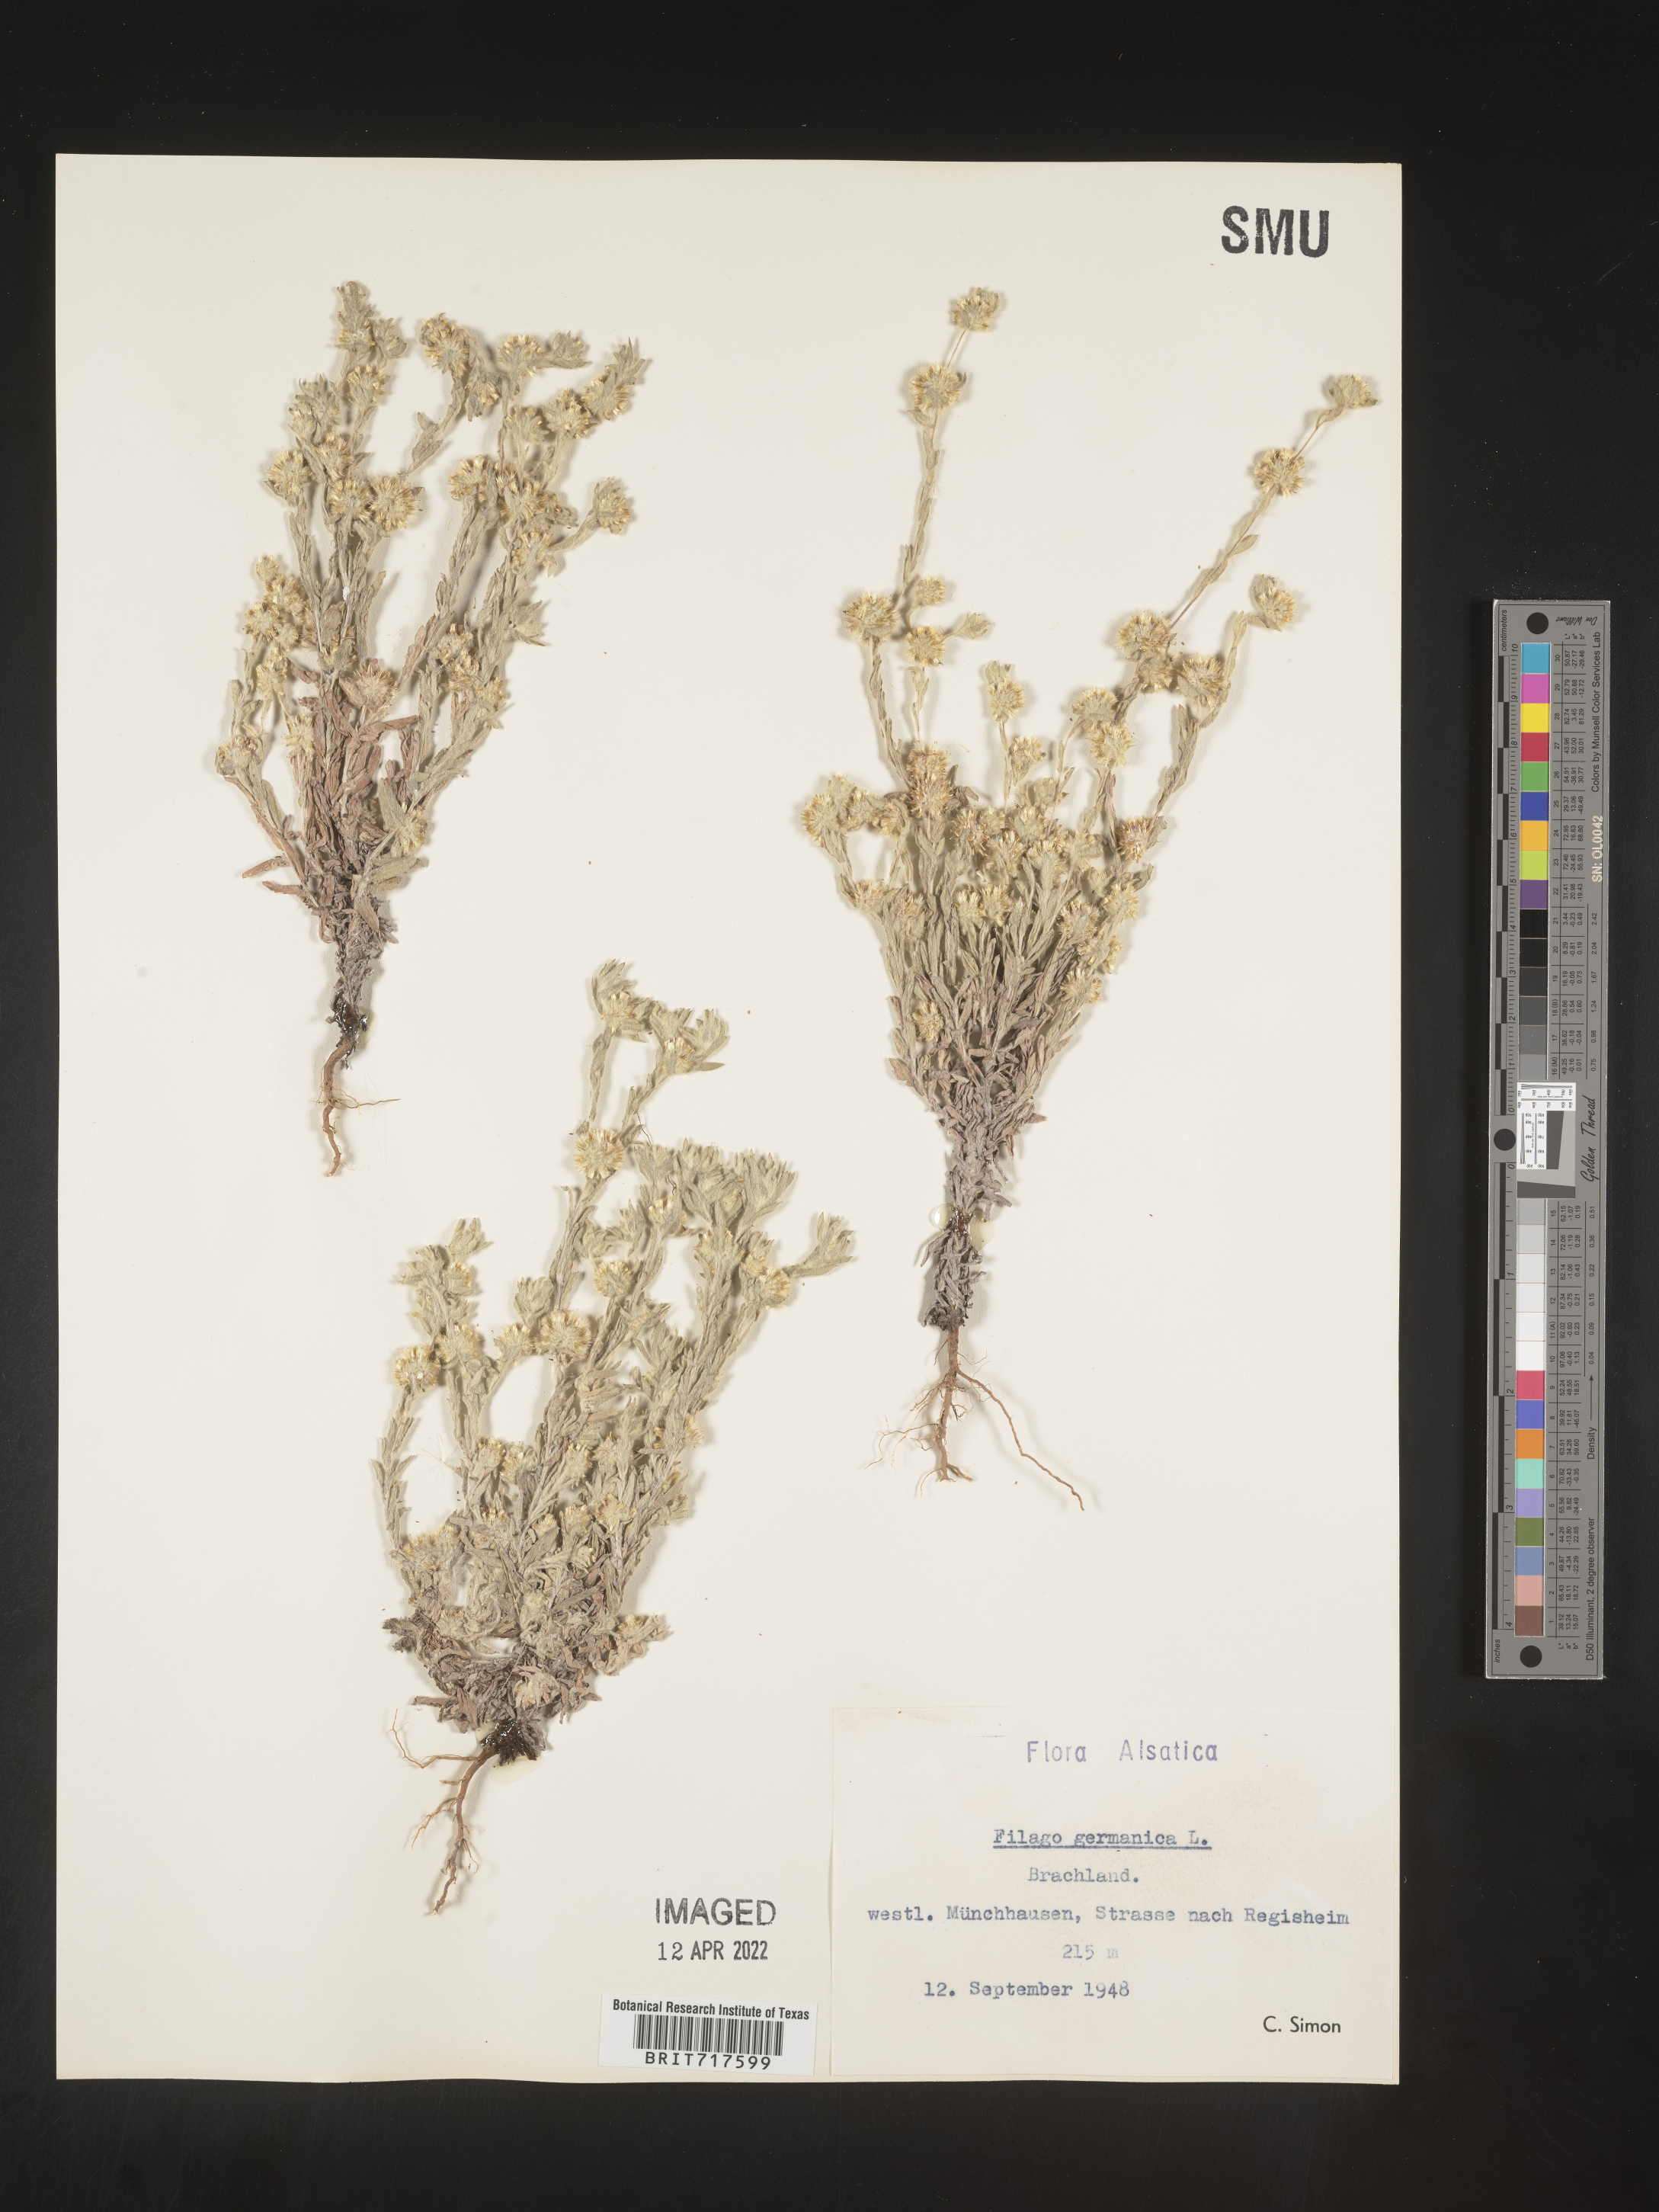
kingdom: Plantae
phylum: Tracheophyta
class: Magnoliopsida
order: Asterales
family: Asteraceae
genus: Filago
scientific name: Filago
